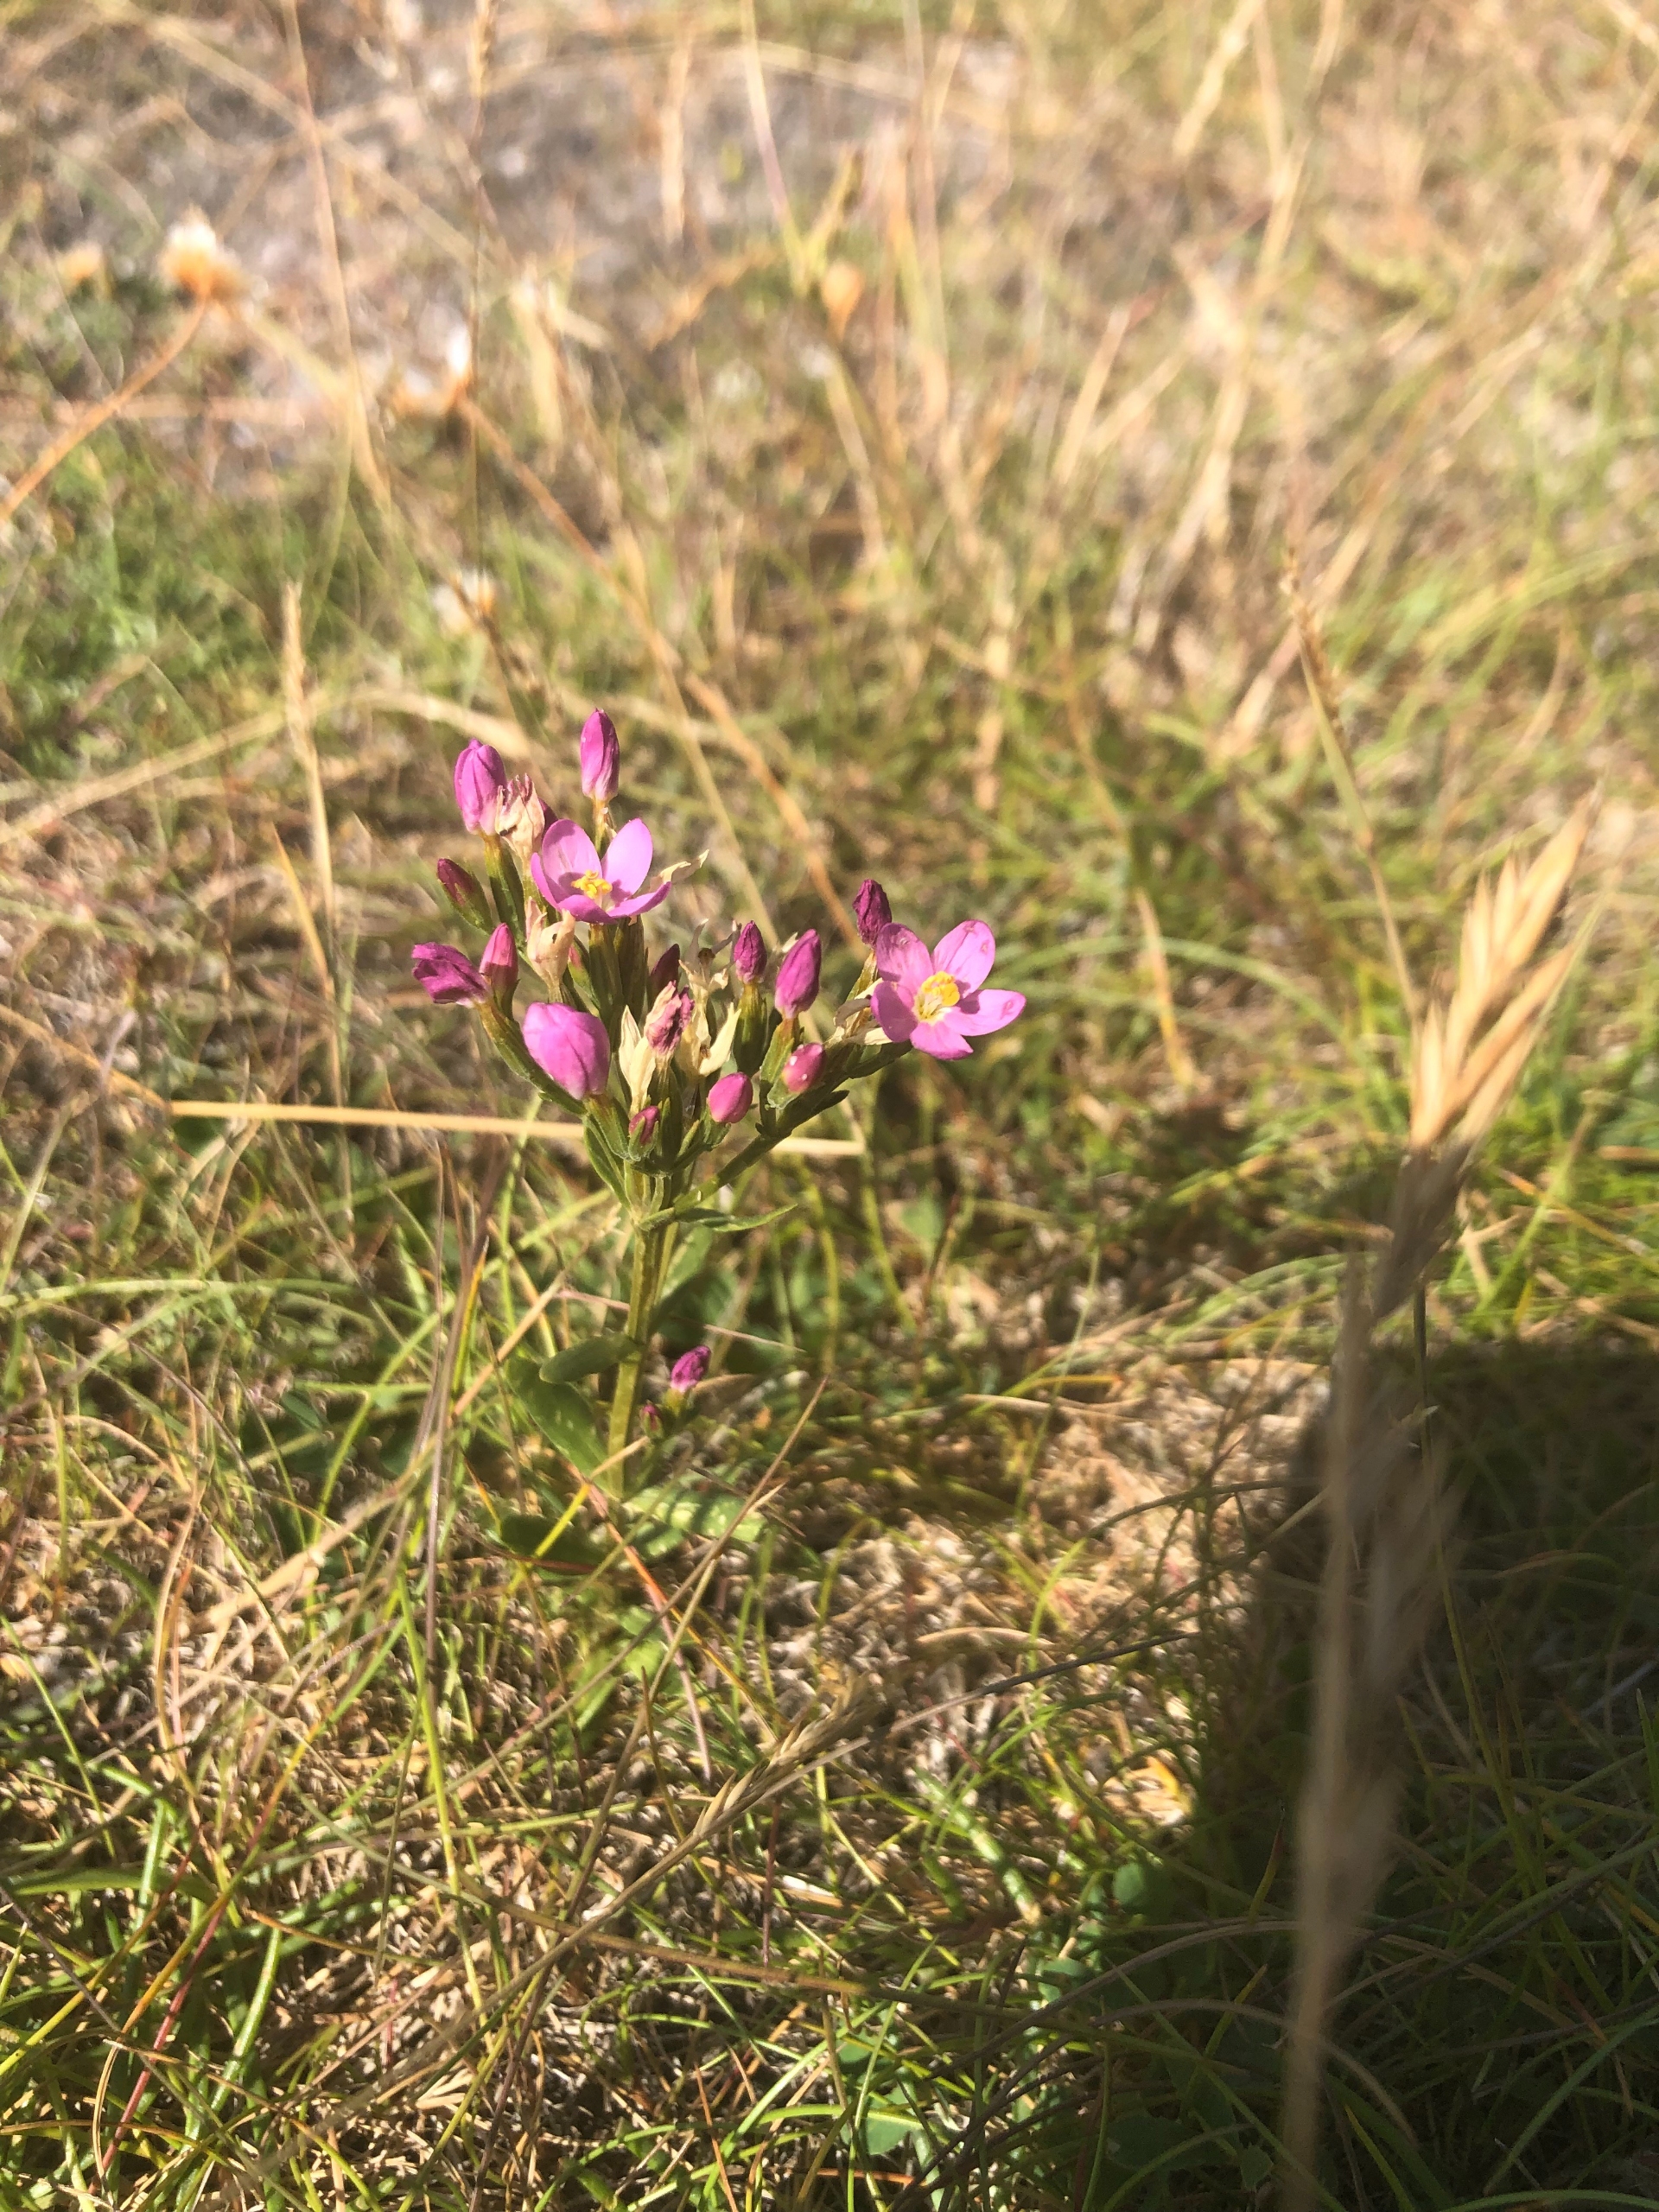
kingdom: Plantae
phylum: Tracheophyta
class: Magnoliopsida
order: Gentianales
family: Gentianaceae
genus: Centaurium
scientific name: Centaurium littorale
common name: Strand-tusindgylden
